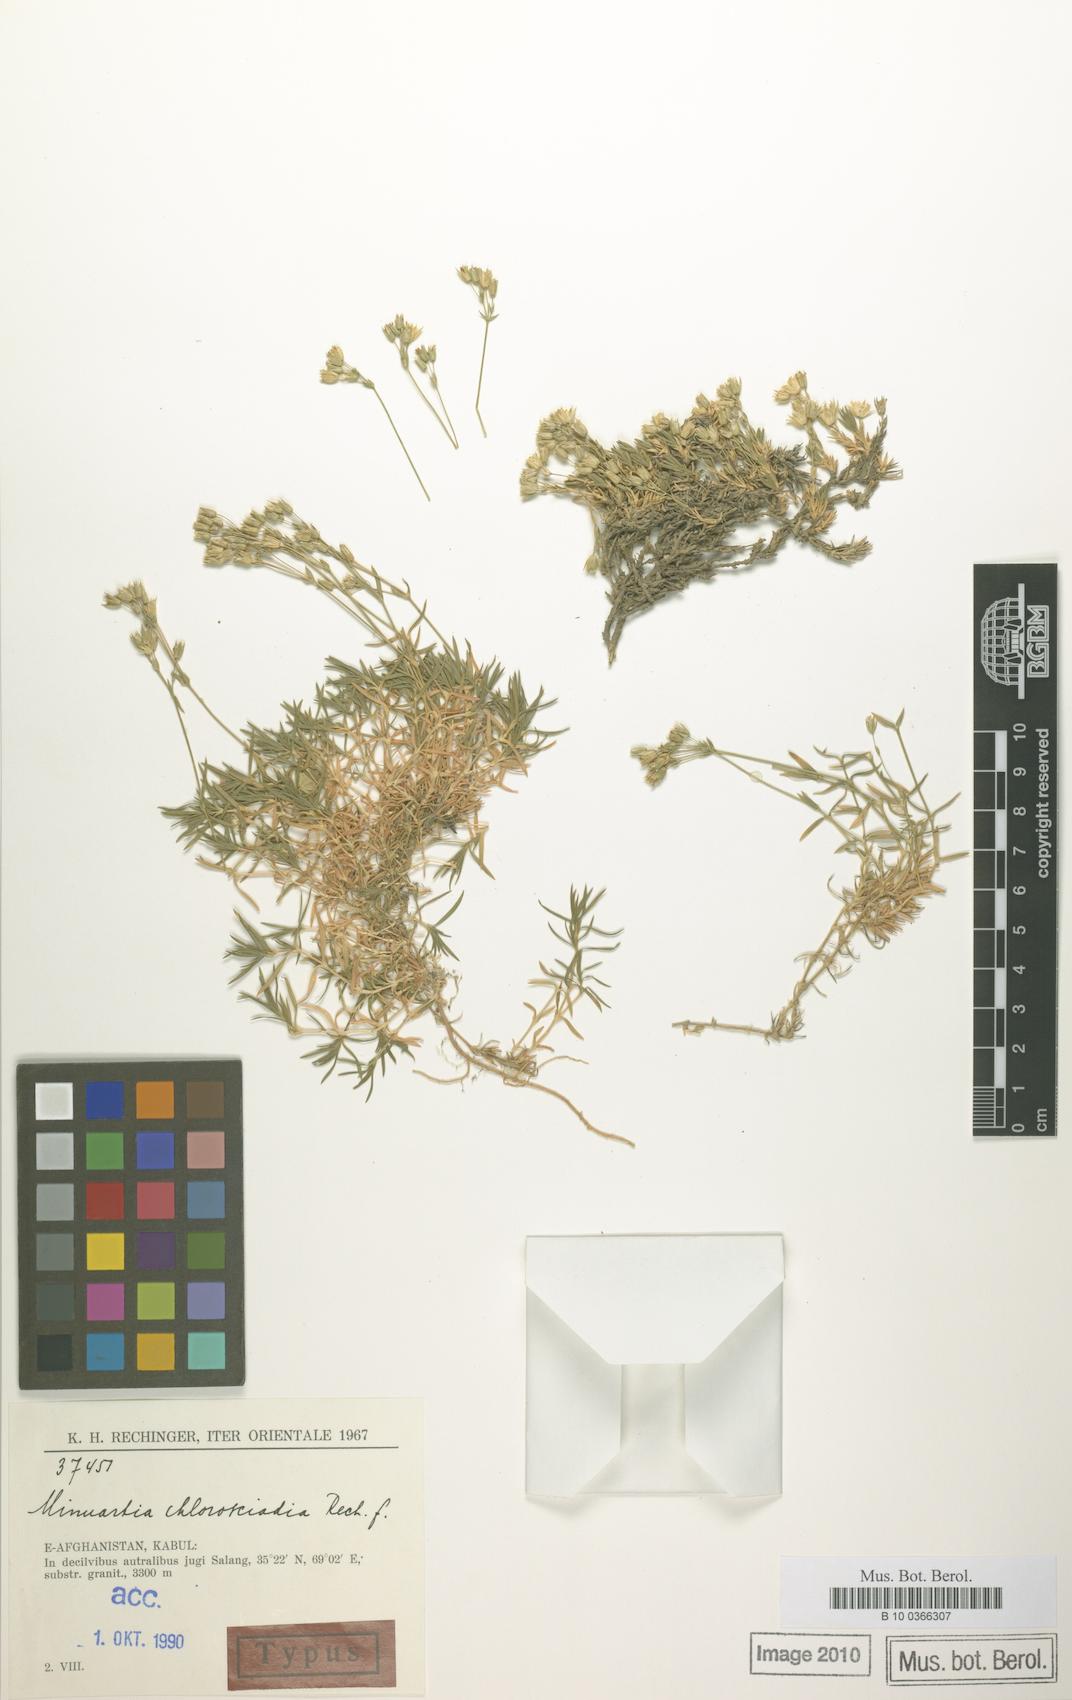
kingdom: Plantae
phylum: Tracheophyta
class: Magnoliopsida
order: Caryophyllales
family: Caryophyllaceae
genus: Sabulina
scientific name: Sabulina chlorosciadia
